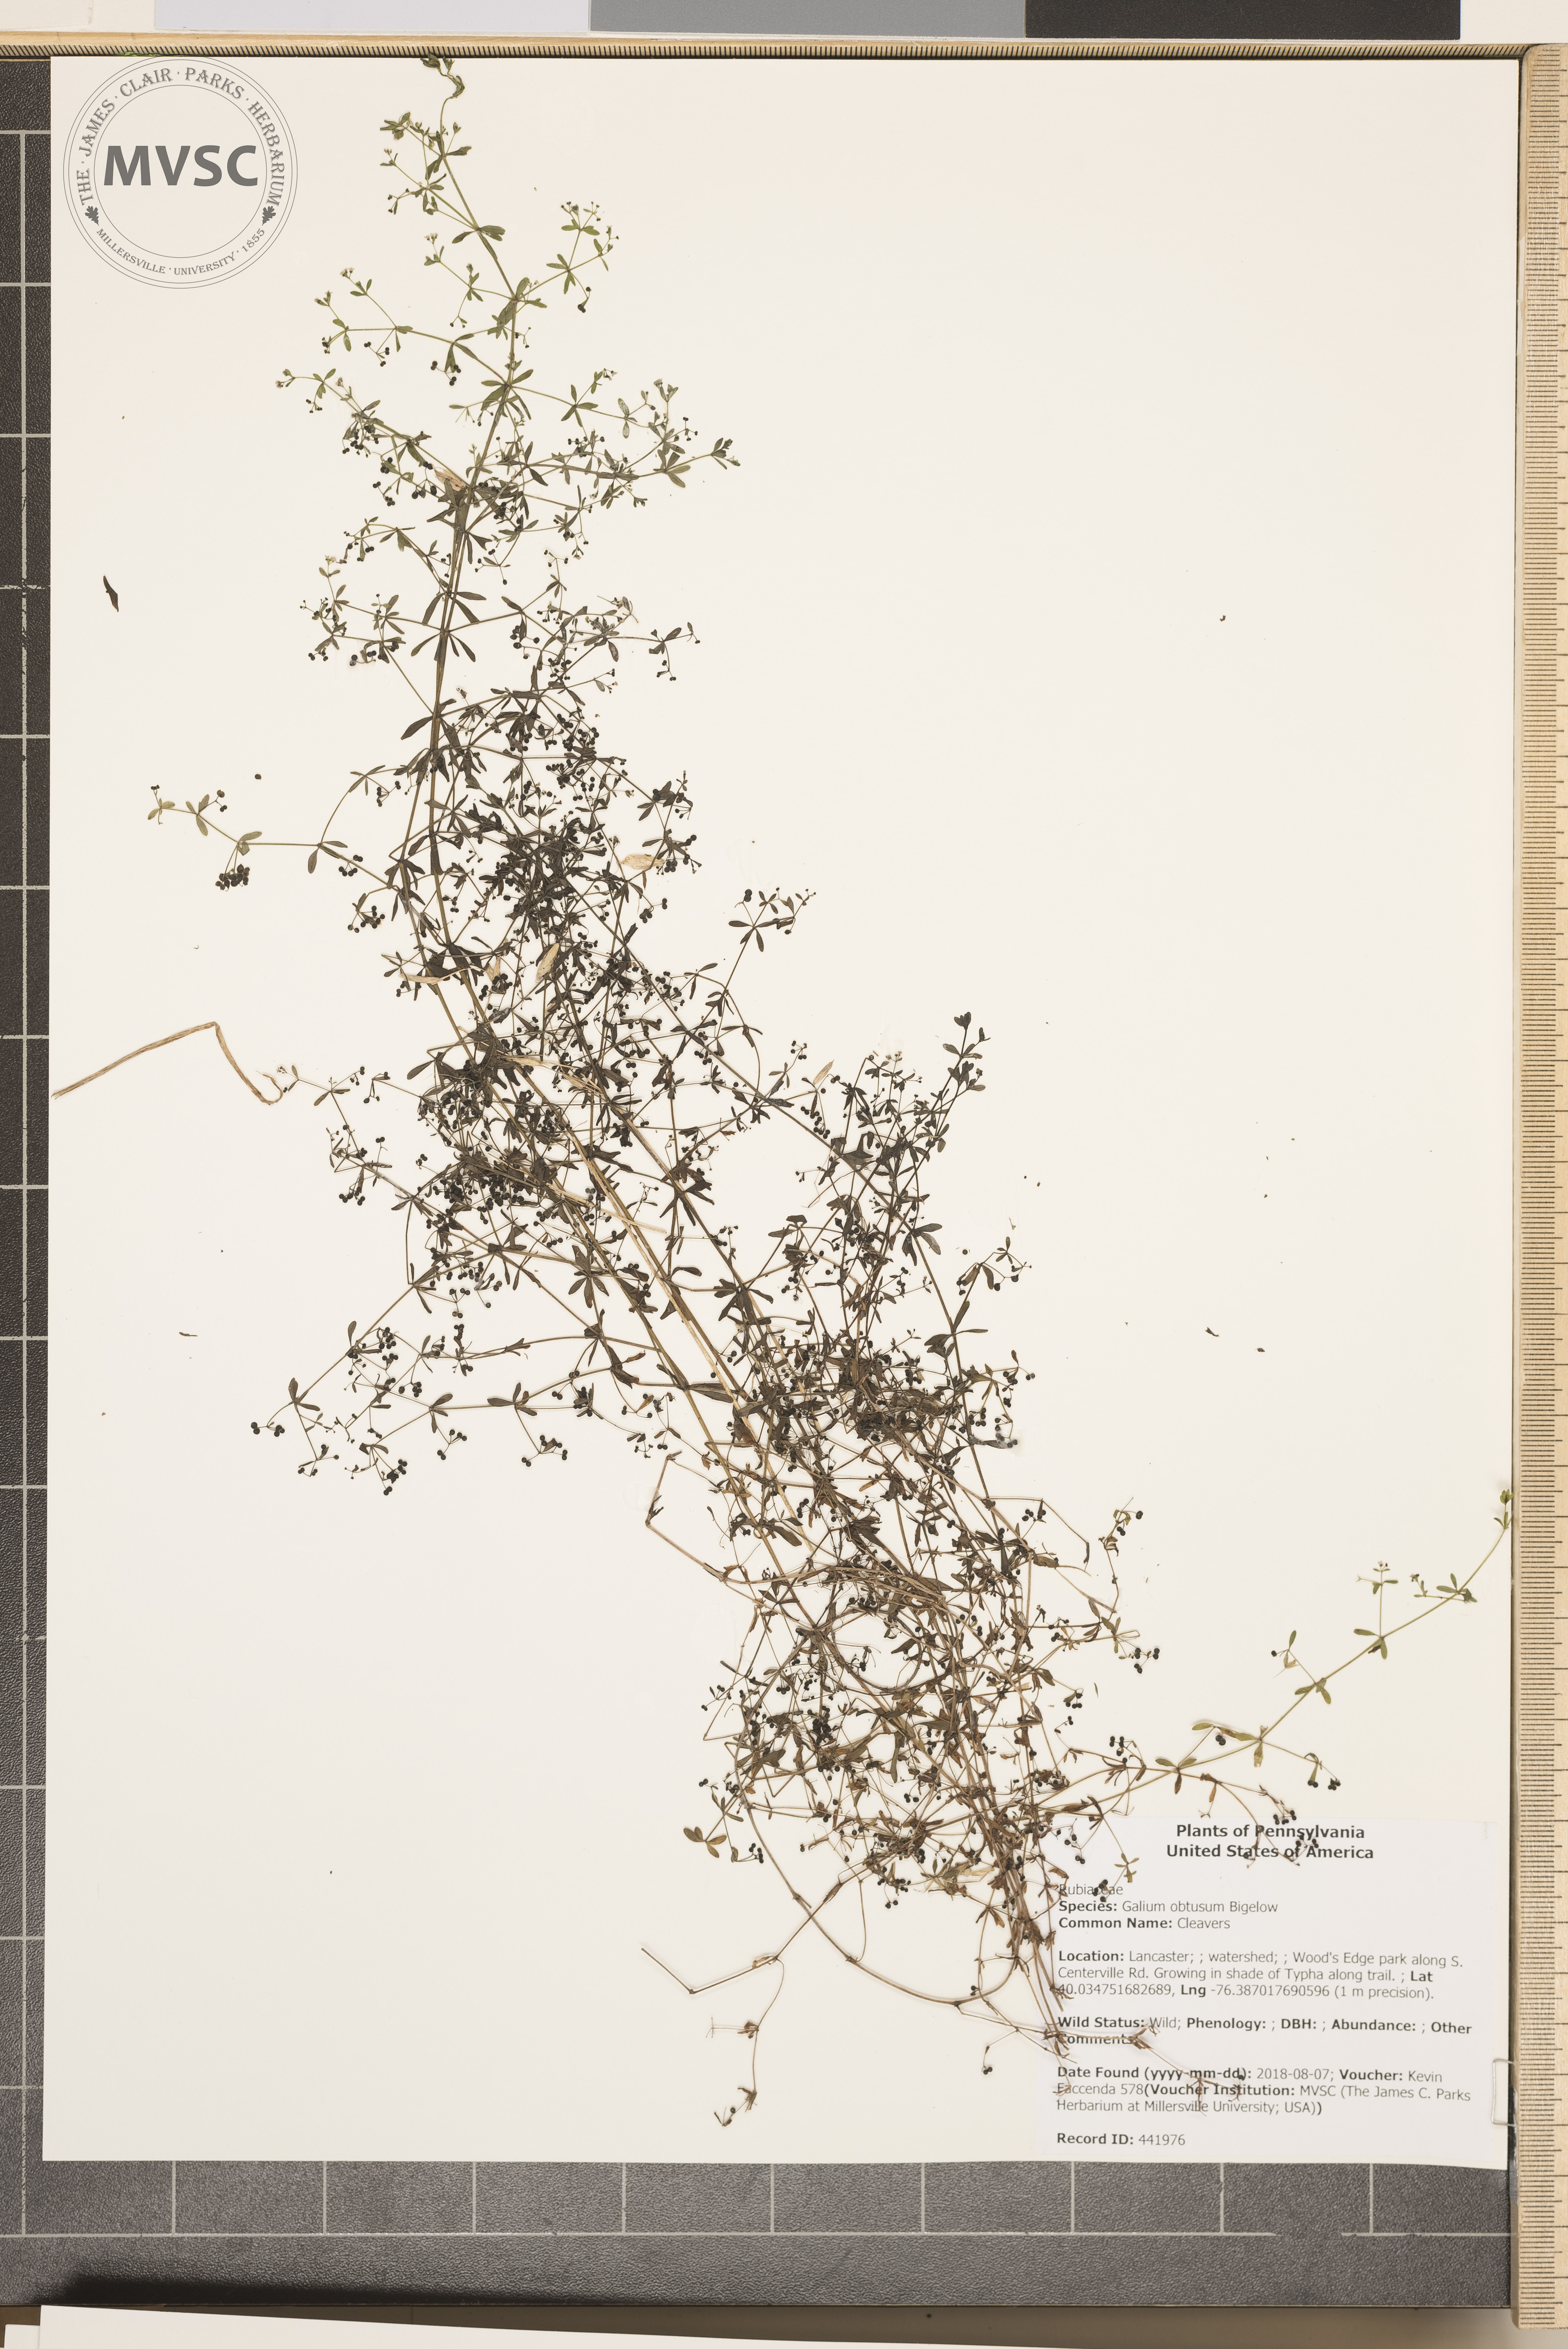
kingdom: Plantae
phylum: Tracheophyta
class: Magnoliopsida
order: Gentianales
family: Rubiaceae
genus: Galium
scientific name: Galium obtusum
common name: Cleavers
